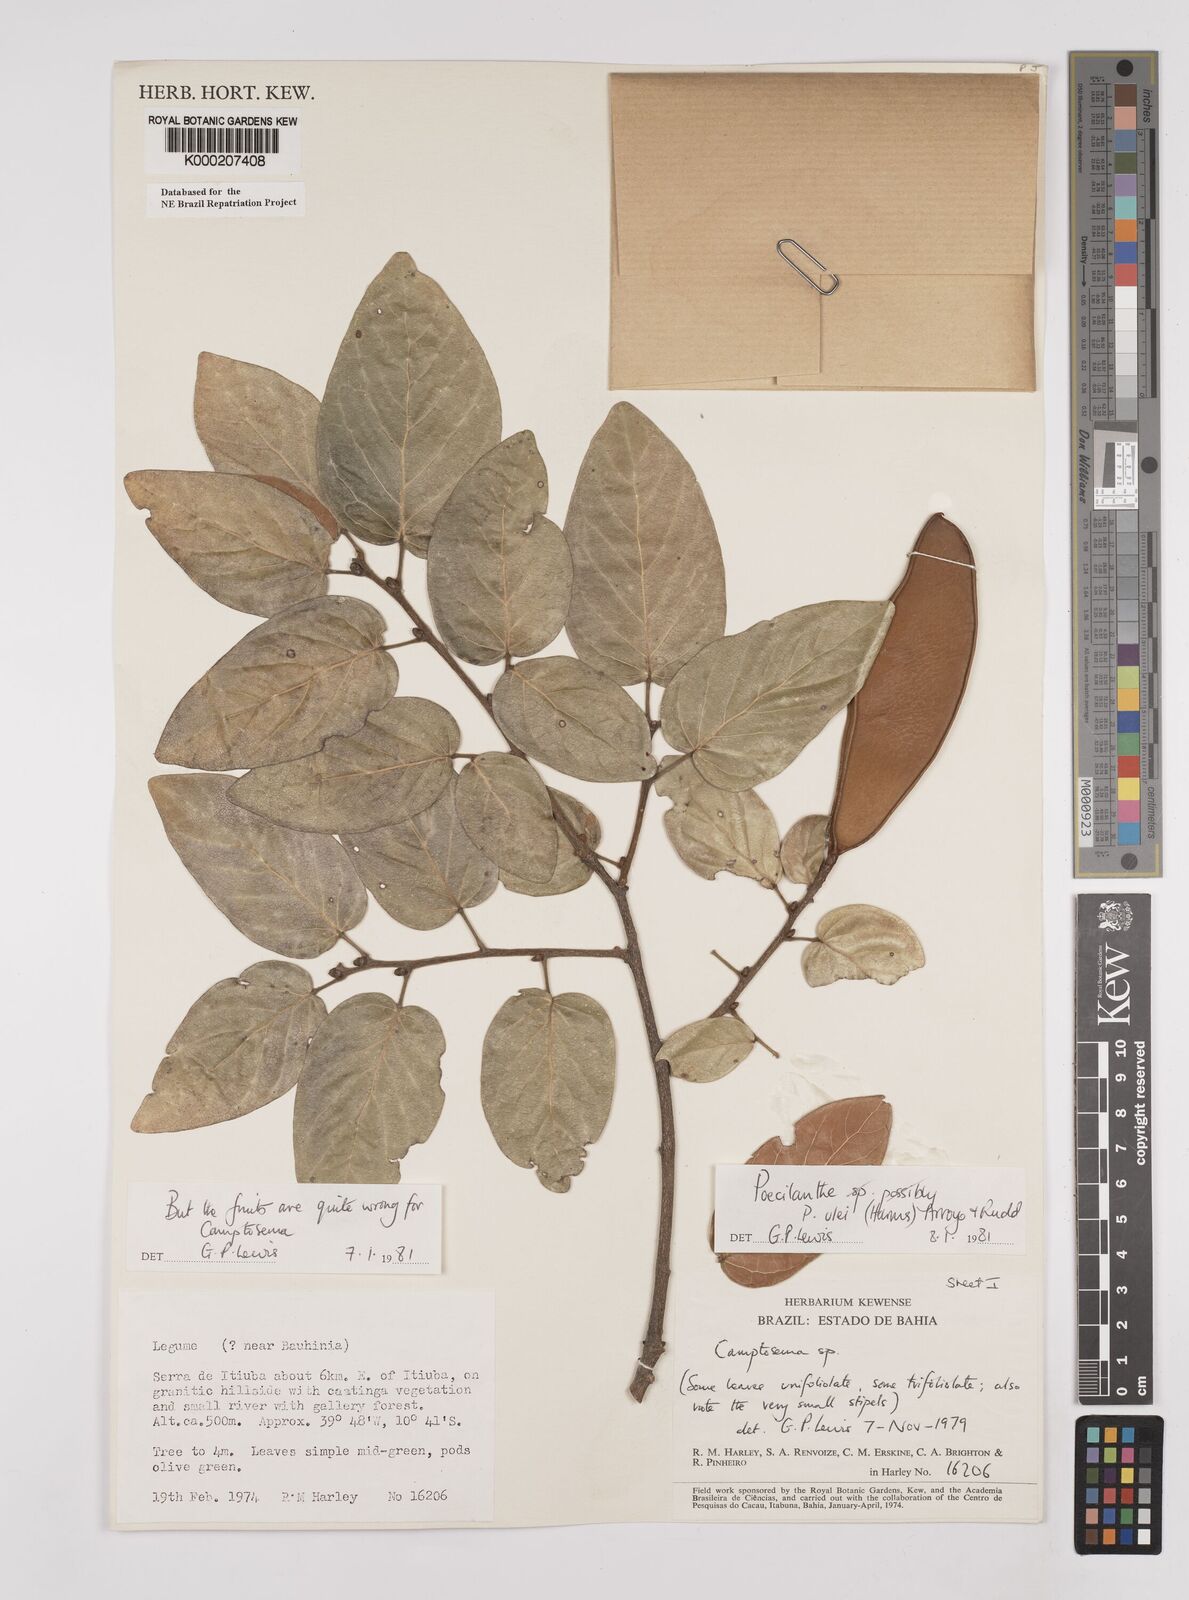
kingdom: Plantae
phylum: Tracheophyta
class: Magnoliopsida
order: Fabales
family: Fabaceae
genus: Poecilanthe
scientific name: Poecilanthe ulei
